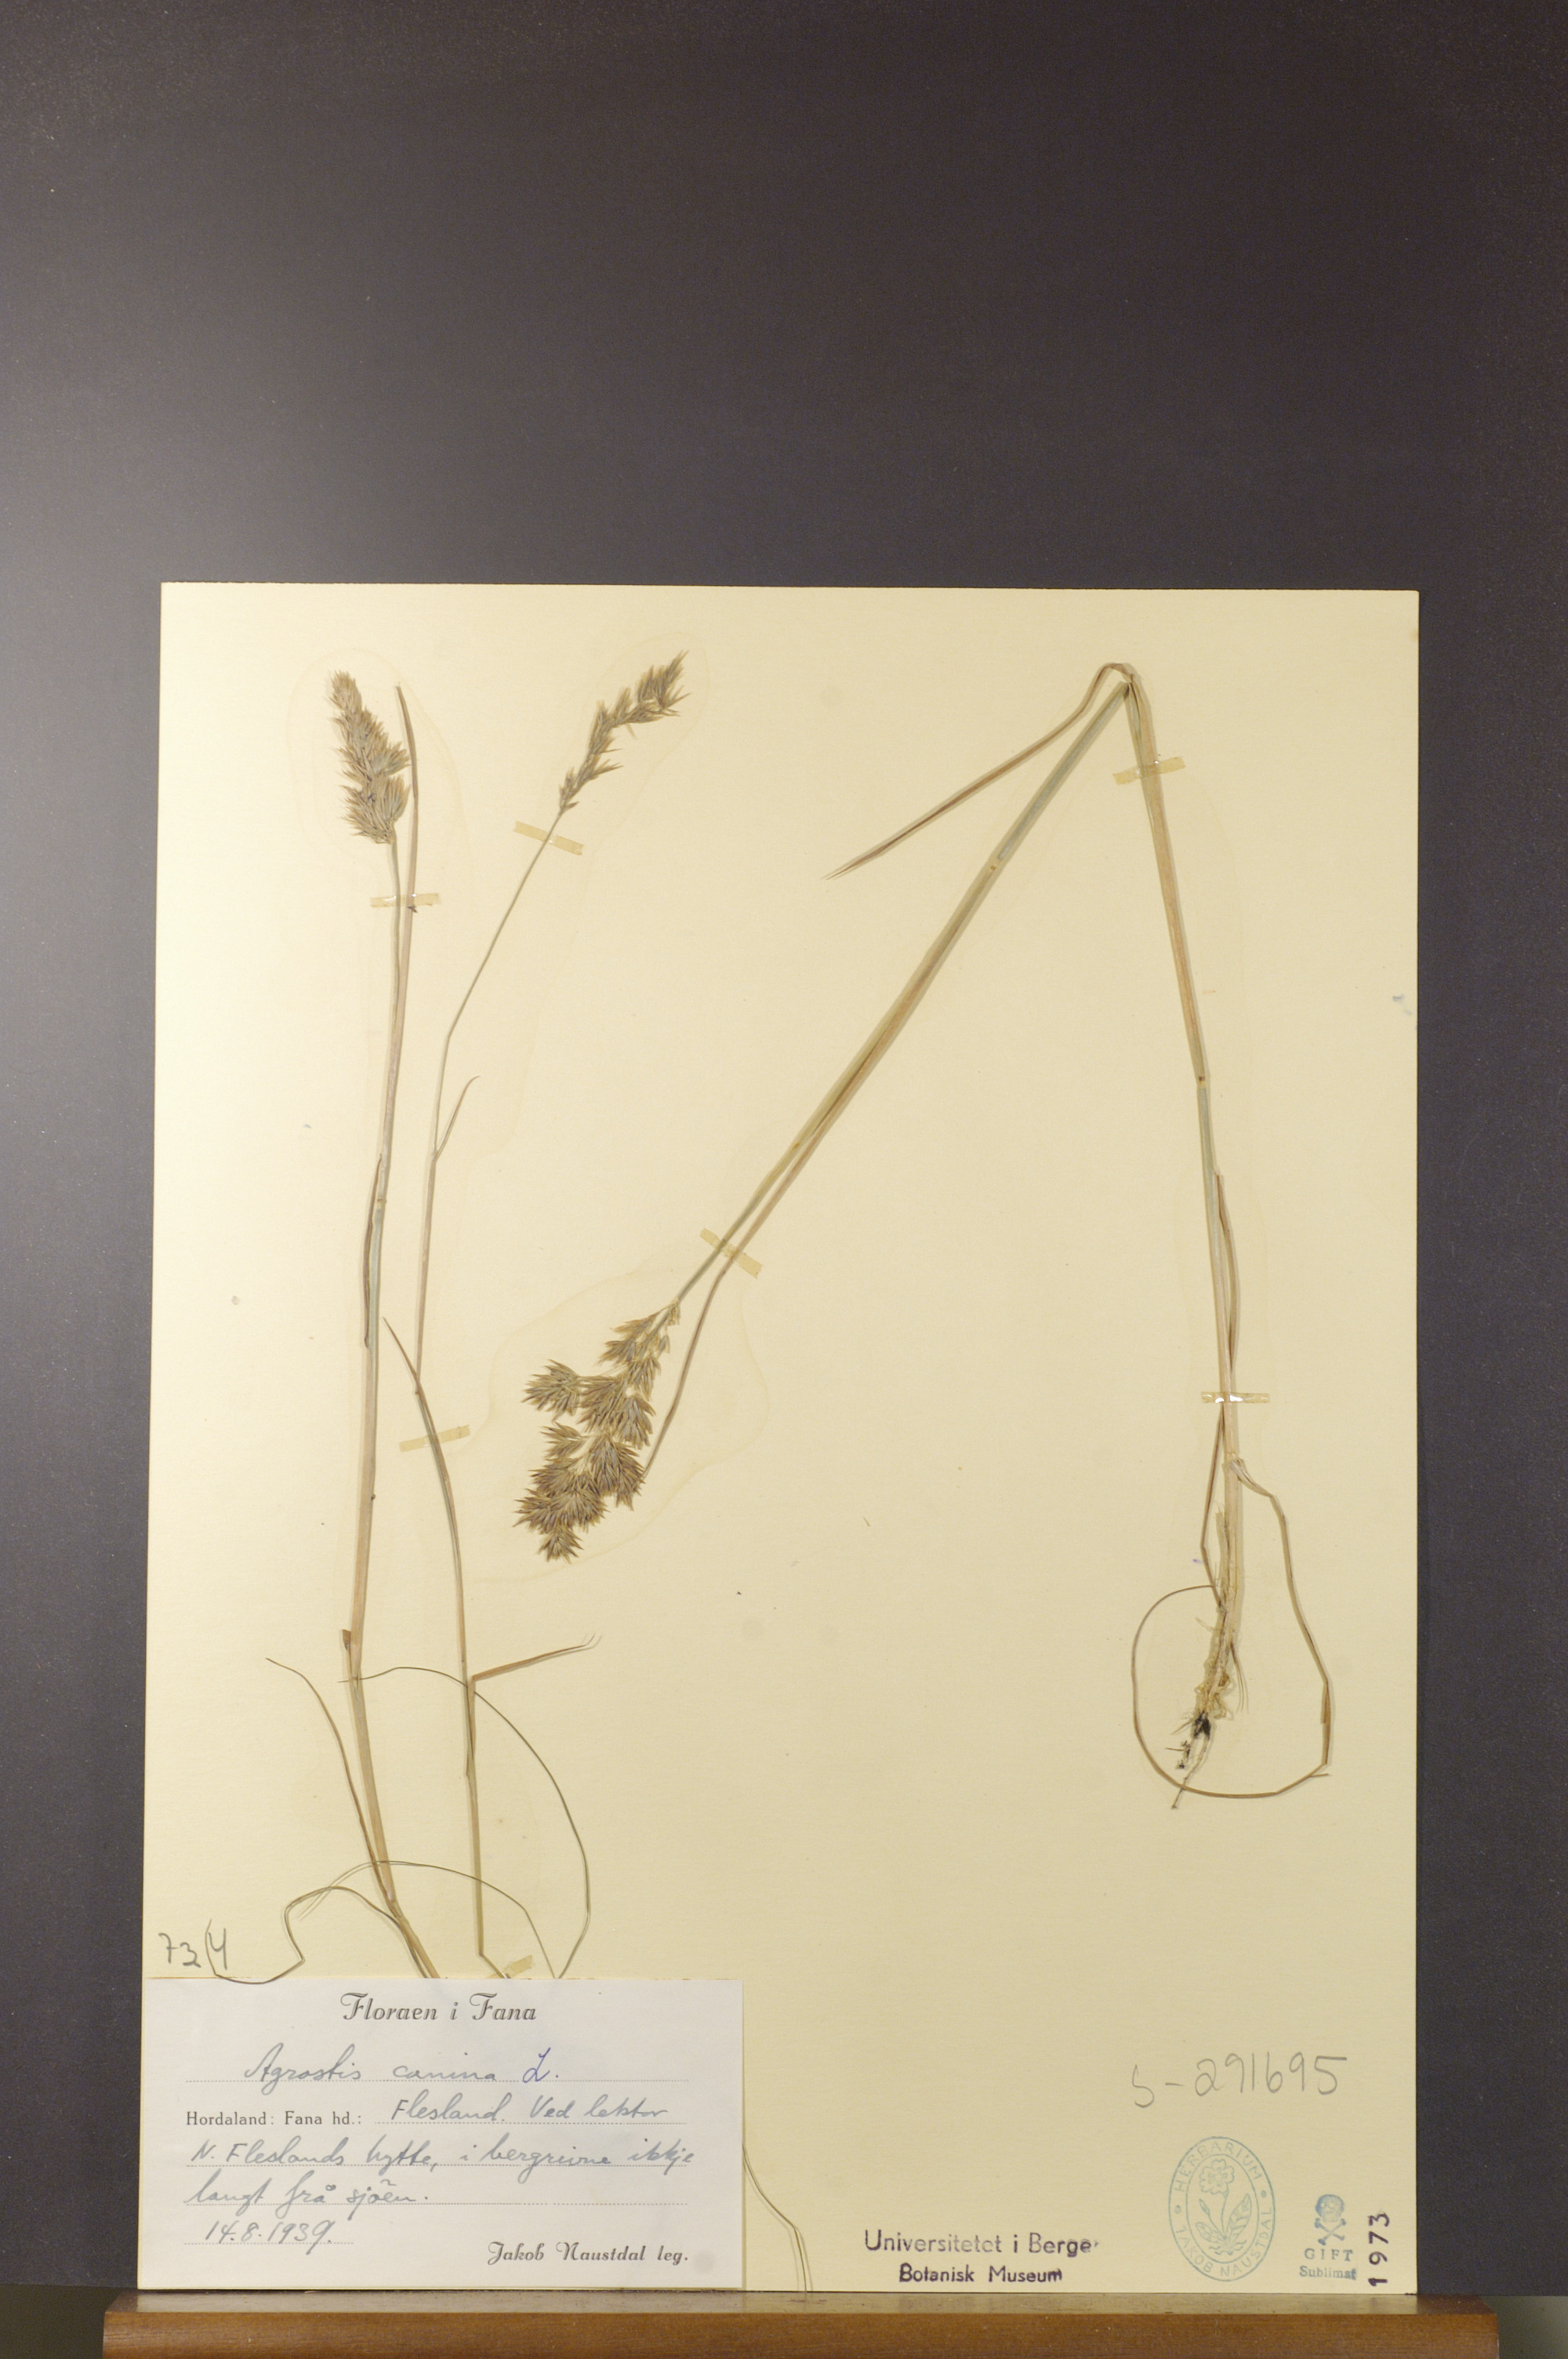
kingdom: Plantae
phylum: Tracheophyta
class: Liliopsida
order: Poales
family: Poaceae
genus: Agrostis
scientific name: Agrostis canina
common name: Velvet bent
